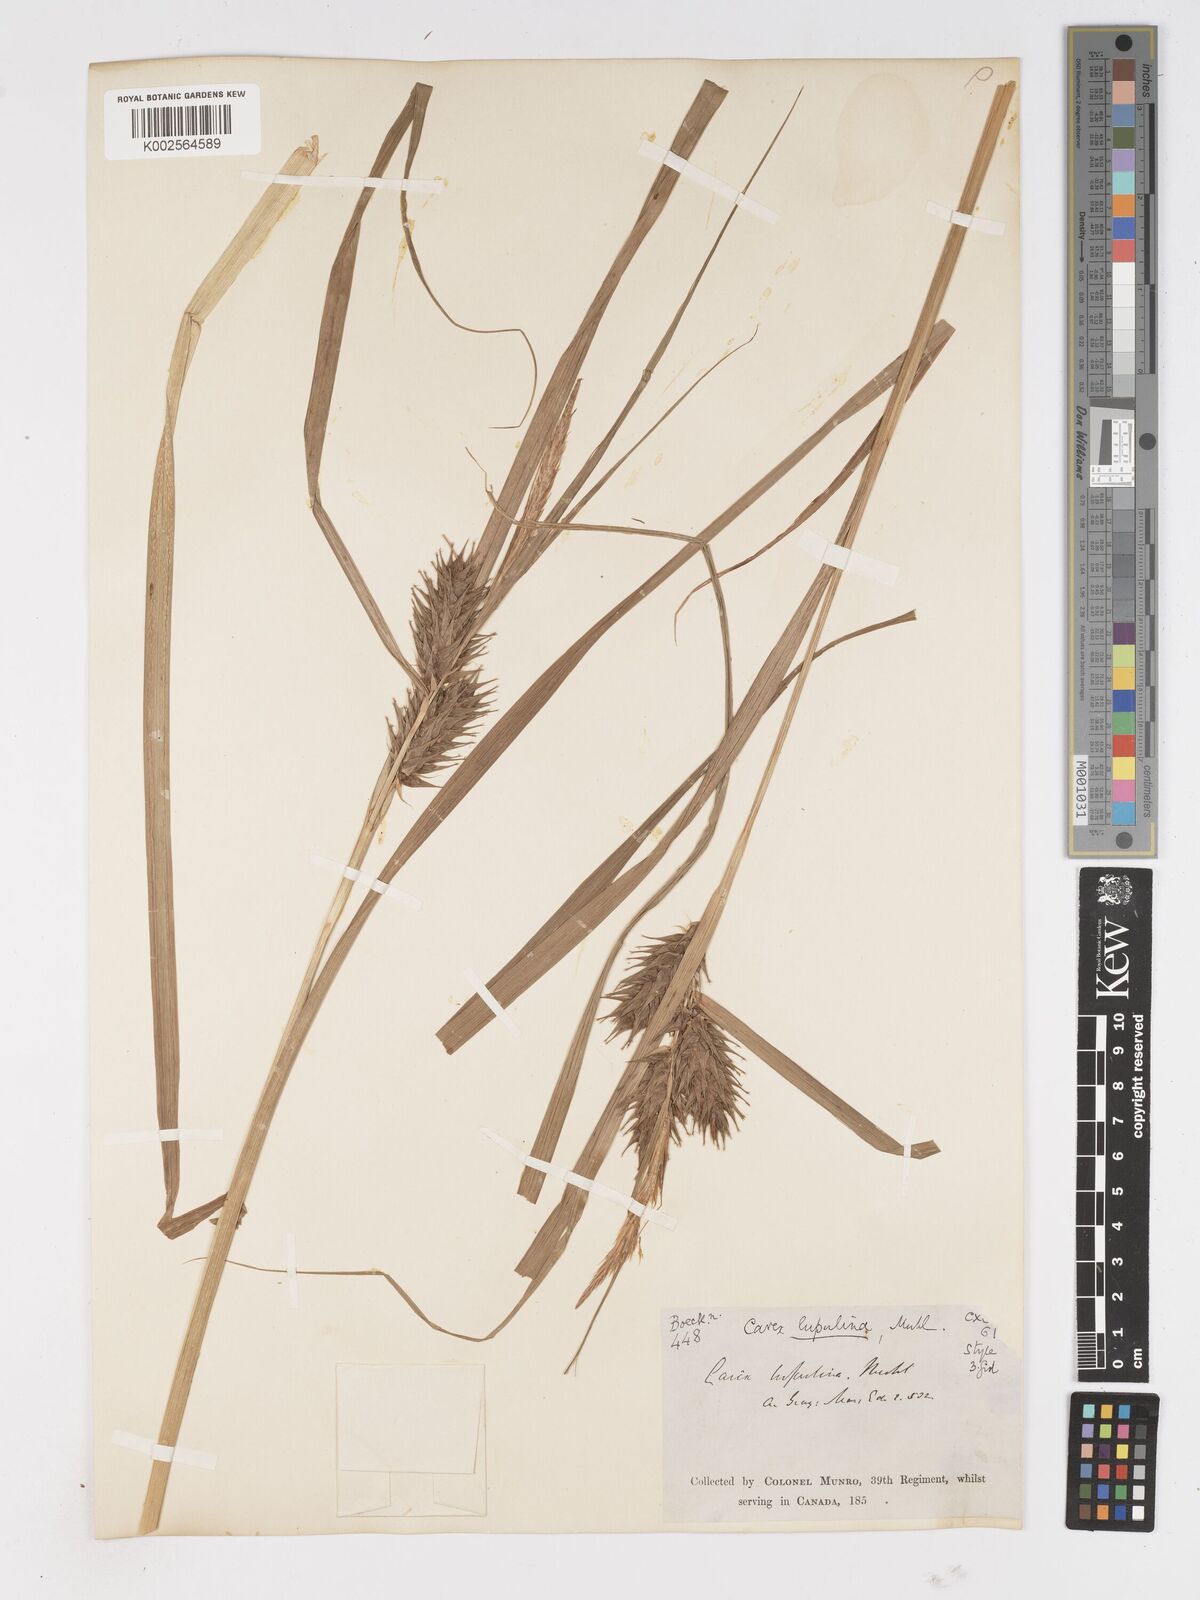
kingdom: Plantae
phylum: Tracheophyta
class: Liliopsida
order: Poales
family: Cyperaceae
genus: Carex
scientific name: Carex lupulina
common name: Hop sedge
